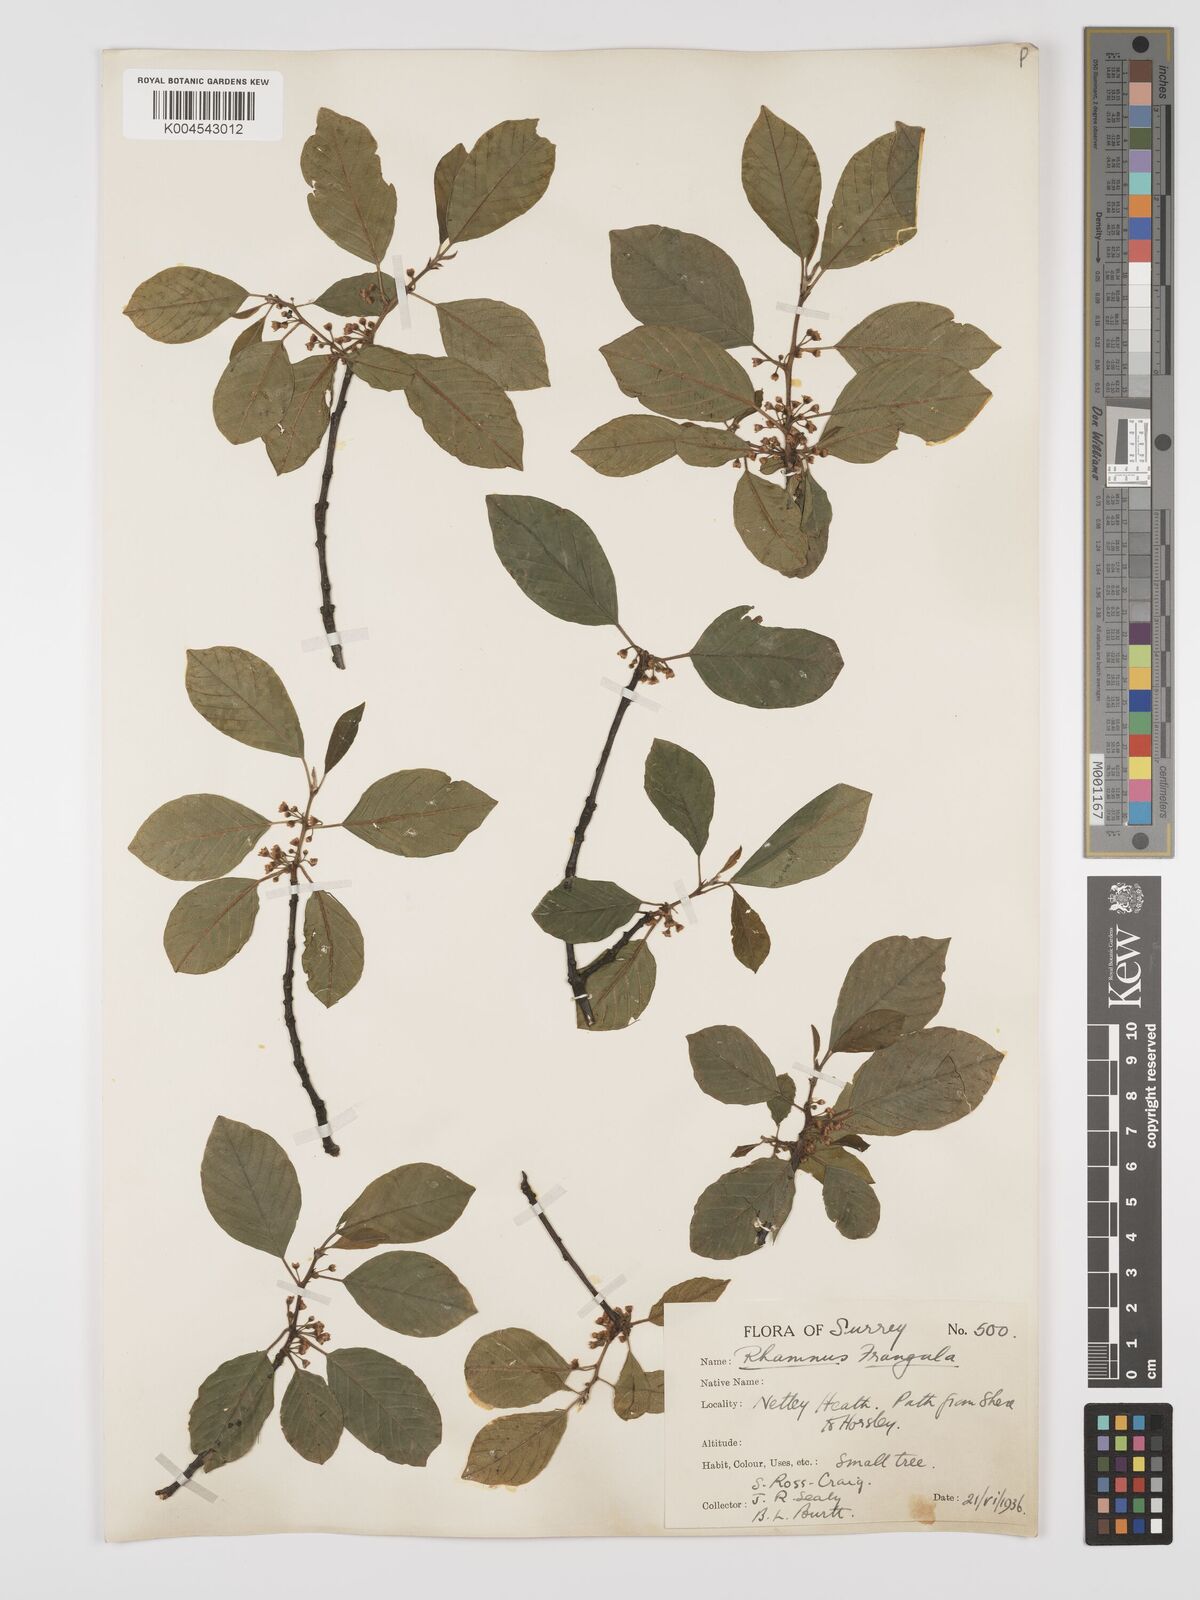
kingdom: Plantae
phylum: Tracheophyta
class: Magnoliopsida
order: Rosales
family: Rhamnaceae
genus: Frangula
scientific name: Frangula alnus
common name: Alder buckthorn
